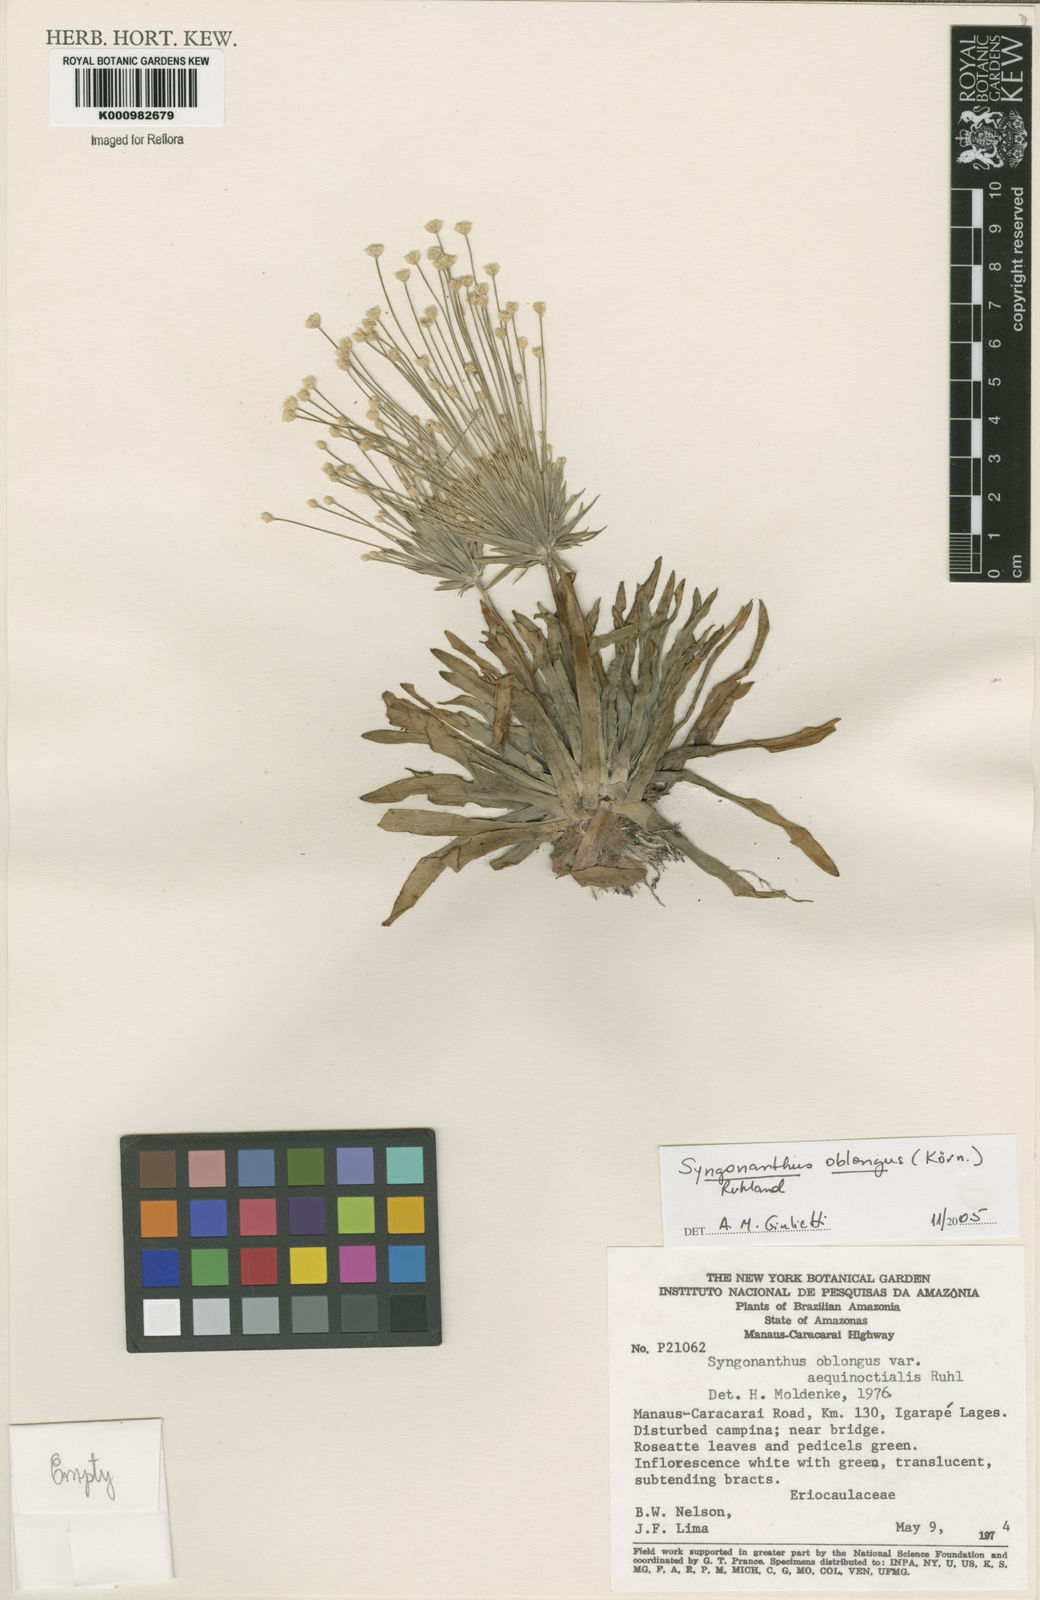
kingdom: Plantae
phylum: Tracheophyta
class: Liliopsida
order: Poales
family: Eriocaulaceae
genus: Syngonanthus
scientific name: Syngonanthus
